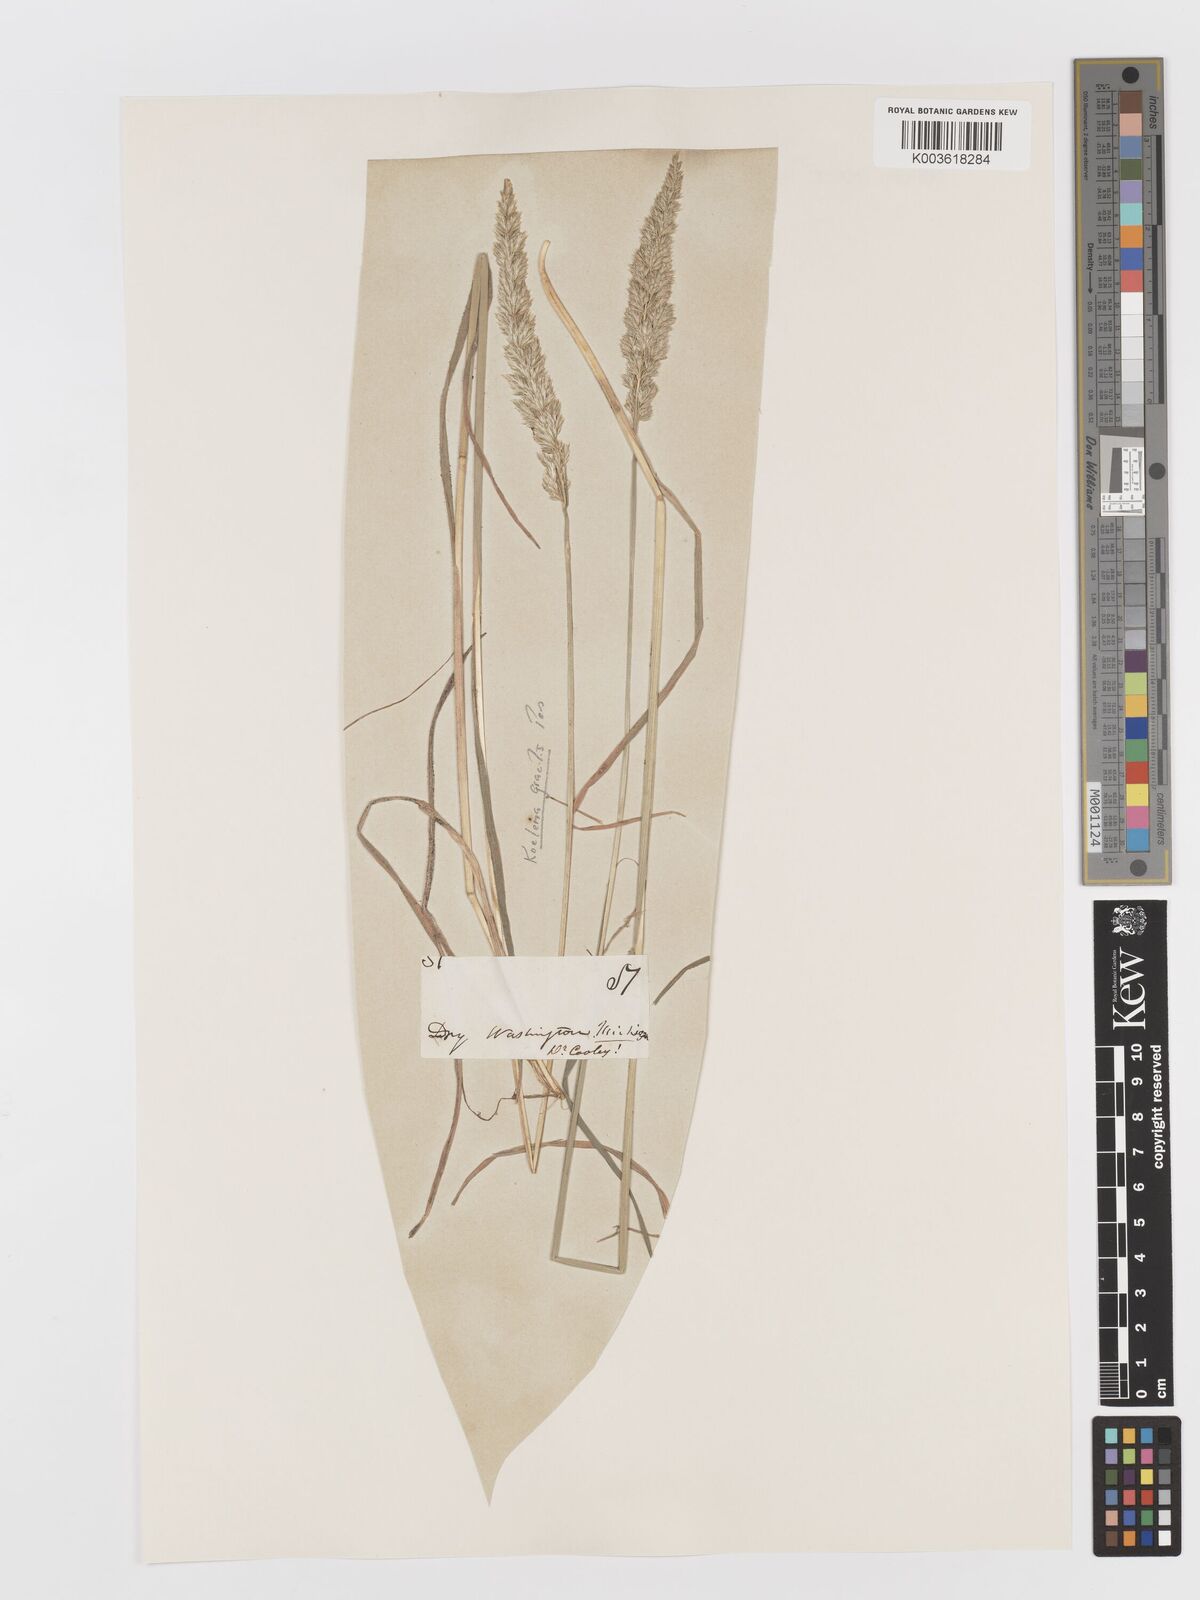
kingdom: Plantae
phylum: Tracheophyta
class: Liliopsida
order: Poales
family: Poaceae
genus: Koeleria
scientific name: Koeleria macrantha
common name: Crested hair-grass
